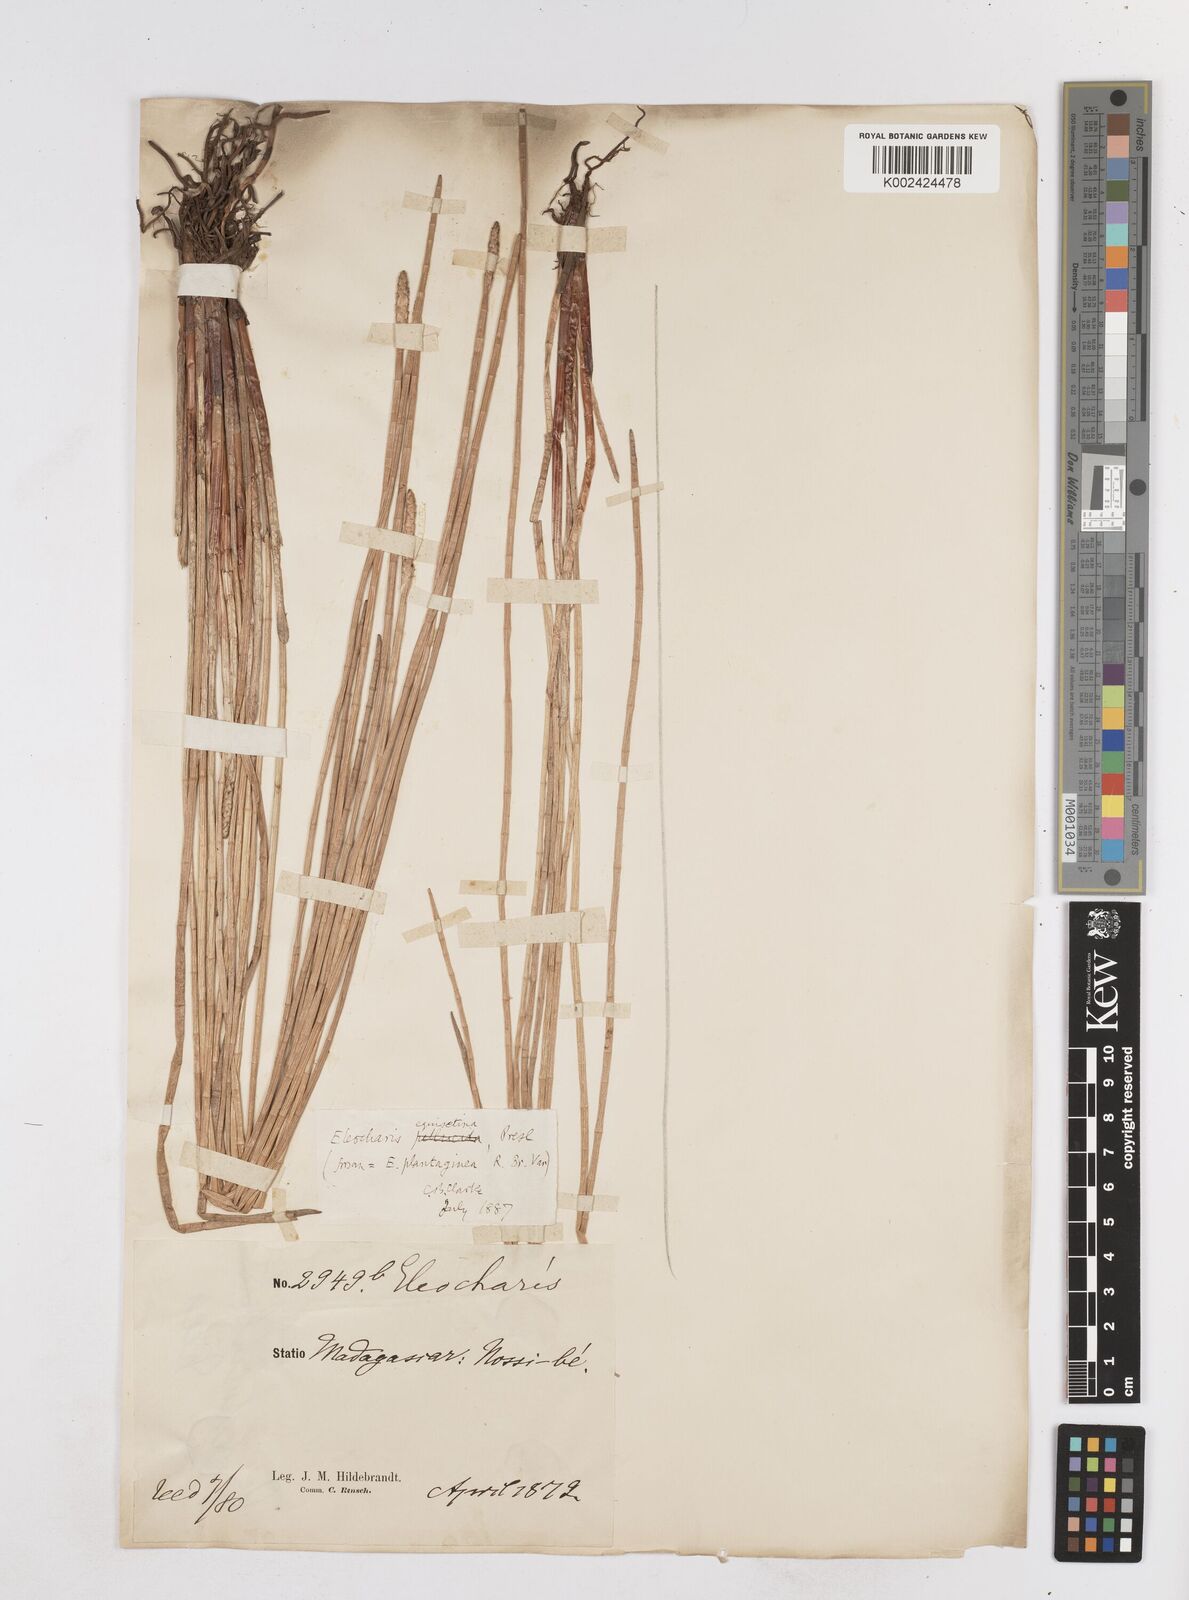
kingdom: Plantae
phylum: Tracheophyta
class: Liliopsida
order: Poales
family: Cyperaceae
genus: Eleocharis
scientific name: Eleocharis dulcis
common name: Chinese water chestnut
